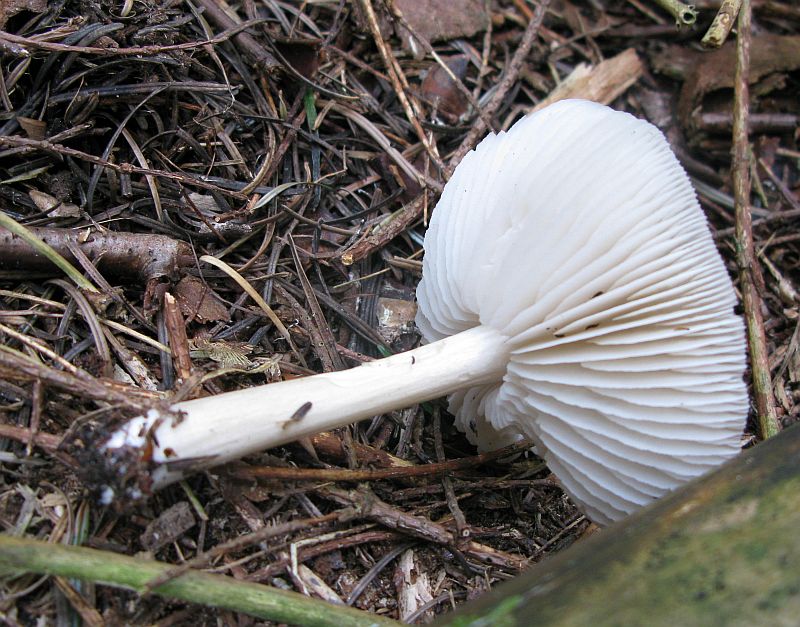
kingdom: Fungi
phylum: Basidiomycota
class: Agaricomycetes
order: Agaricales
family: Tricholomataceae
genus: Megacollybia
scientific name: Megacollybia platyphylla
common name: bredbladet væbnerhat
